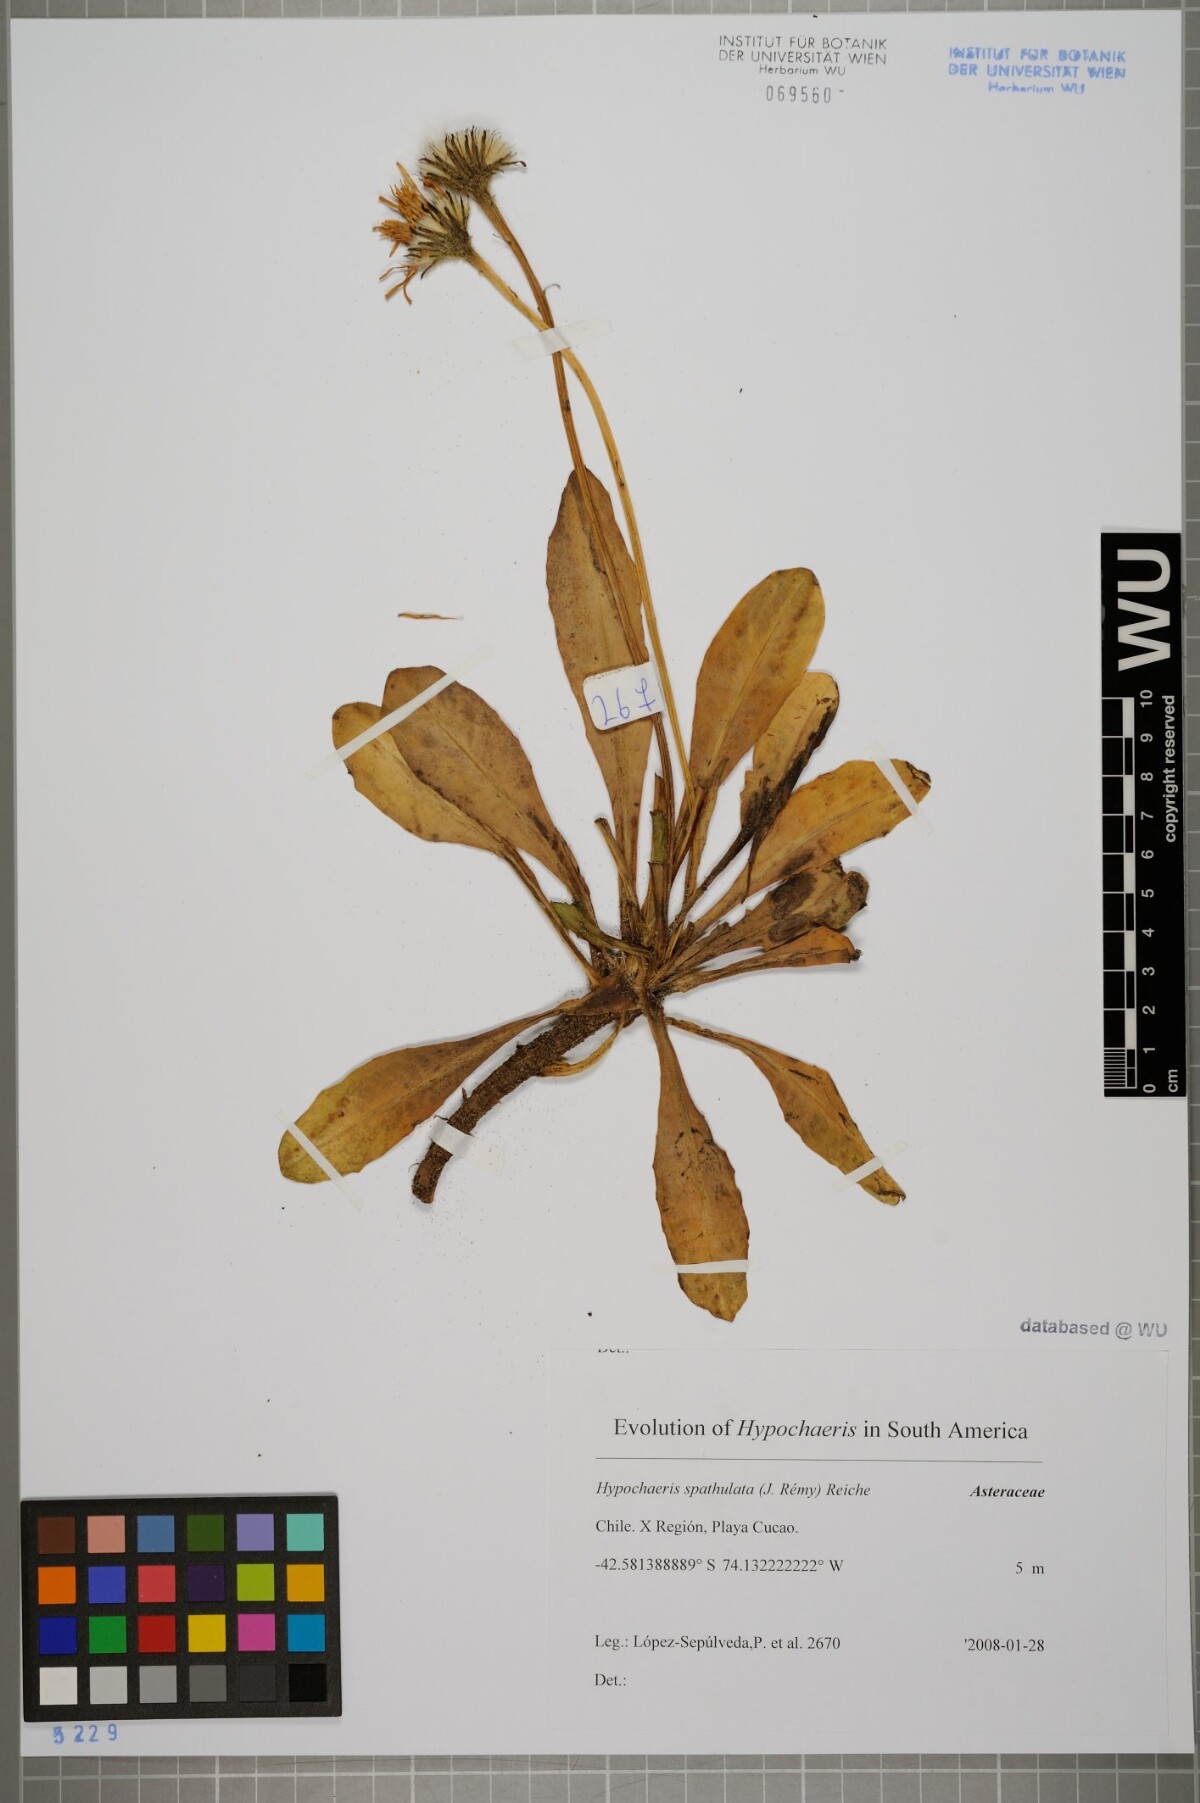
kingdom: Plantae
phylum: Tracheophyta
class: Magnoliopsida
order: Asterales
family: Asteraceae
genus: Hypochaeris
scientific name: Hypochaeris spathulata
